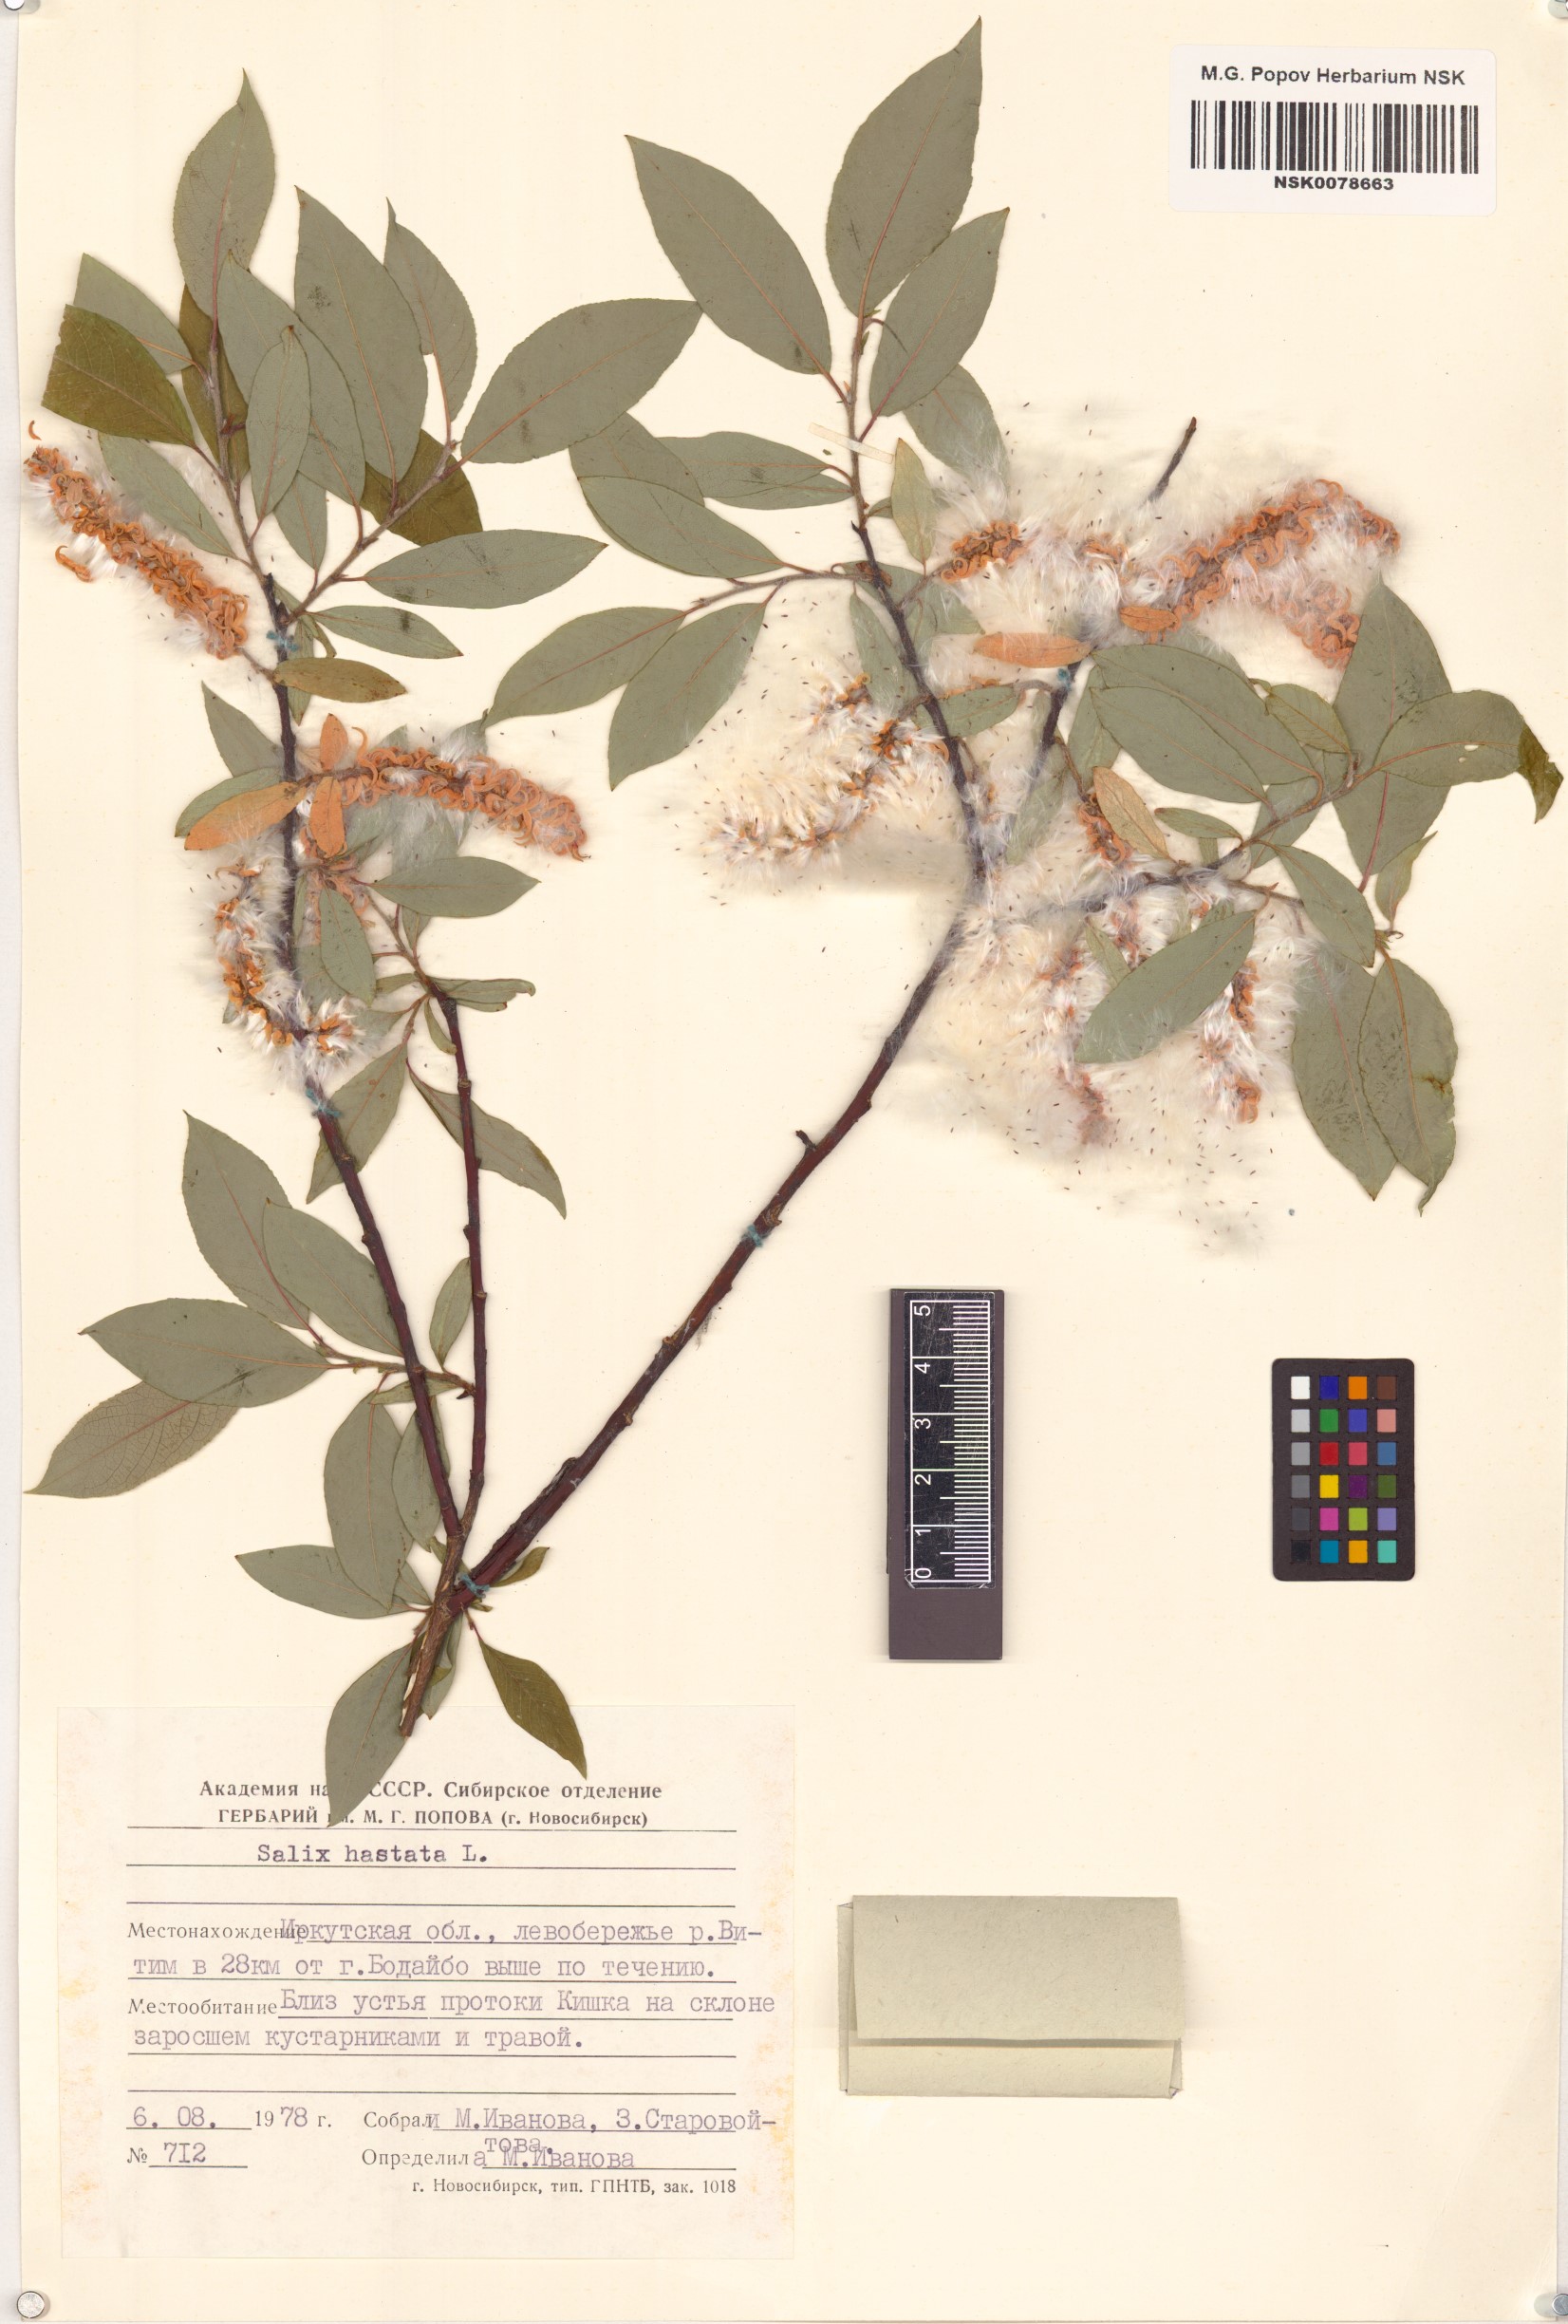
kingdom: Plantae
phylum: Tracheophyta
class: Magnoliopsida
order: Malpighiales
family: Salicaceae
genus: Salix
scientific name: Salix hastata
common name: Halberd willow
